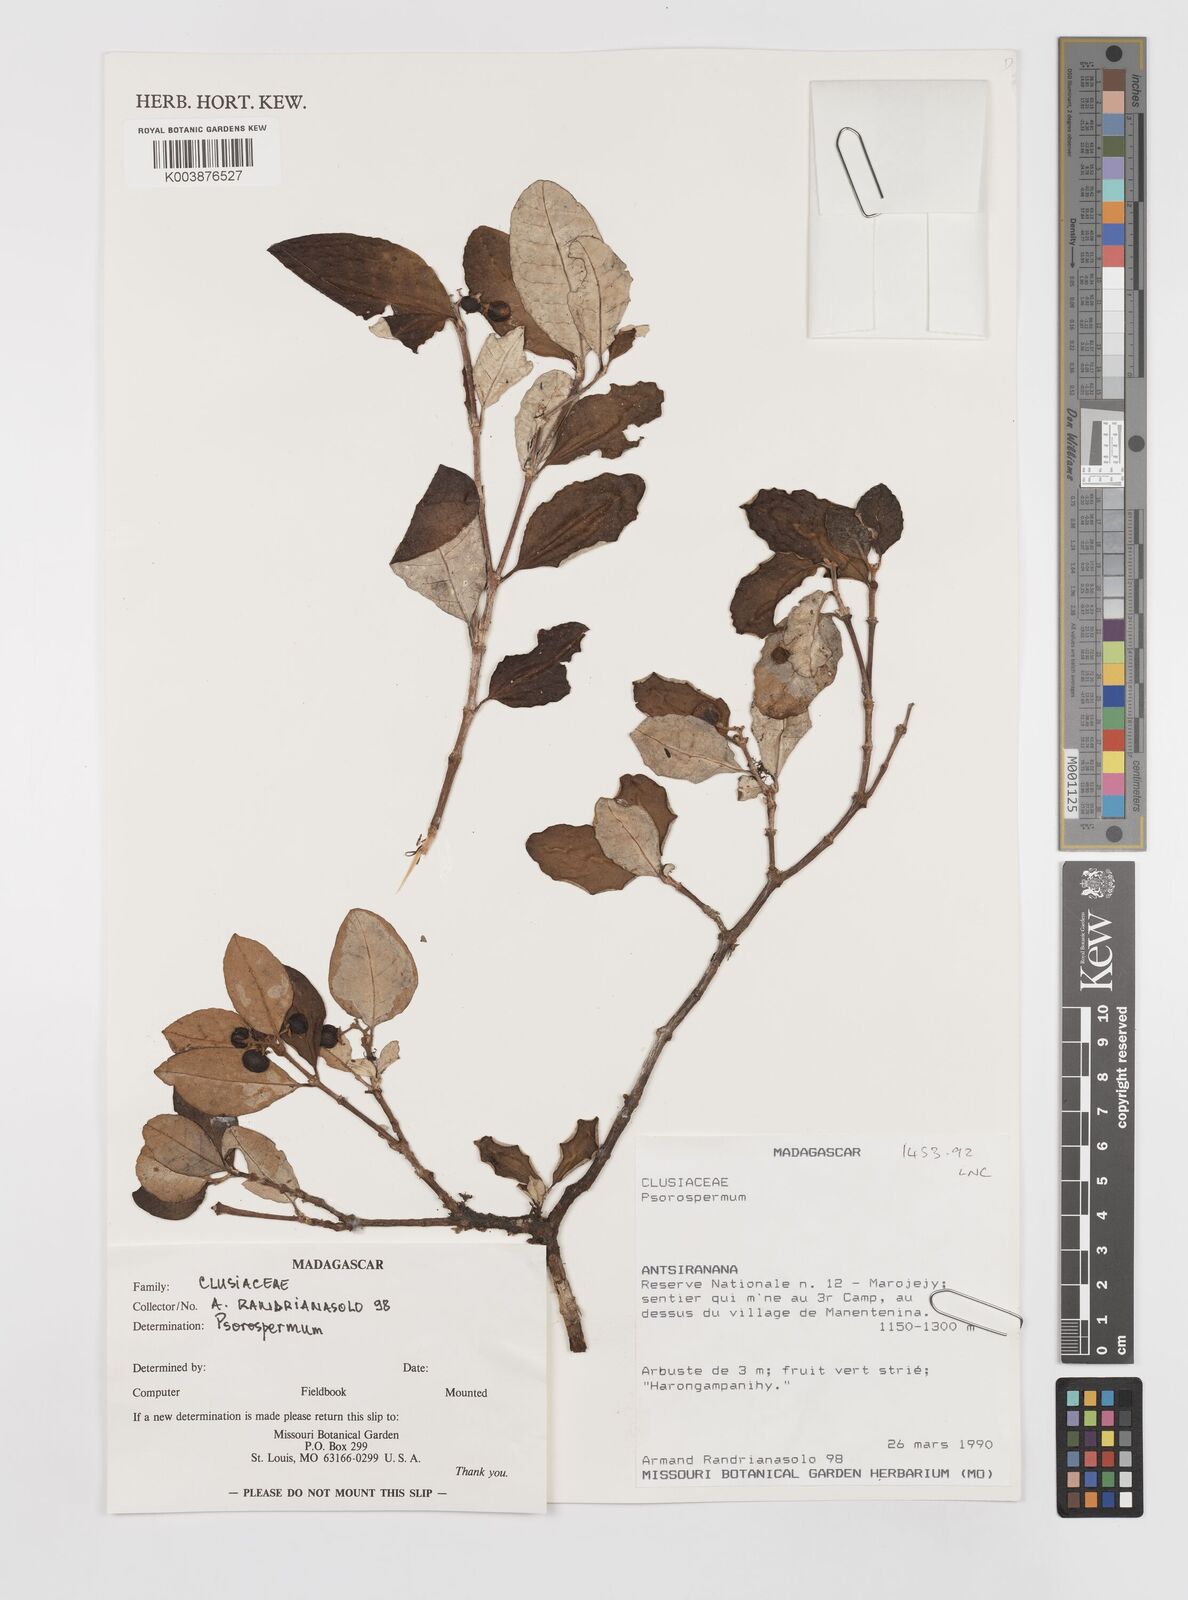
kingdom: Plantae
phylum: Tracheophyta
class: Magnoliopsida
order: Malpighiales
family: Hypericaceae
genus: Psorospermum
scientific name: Psorospermum
